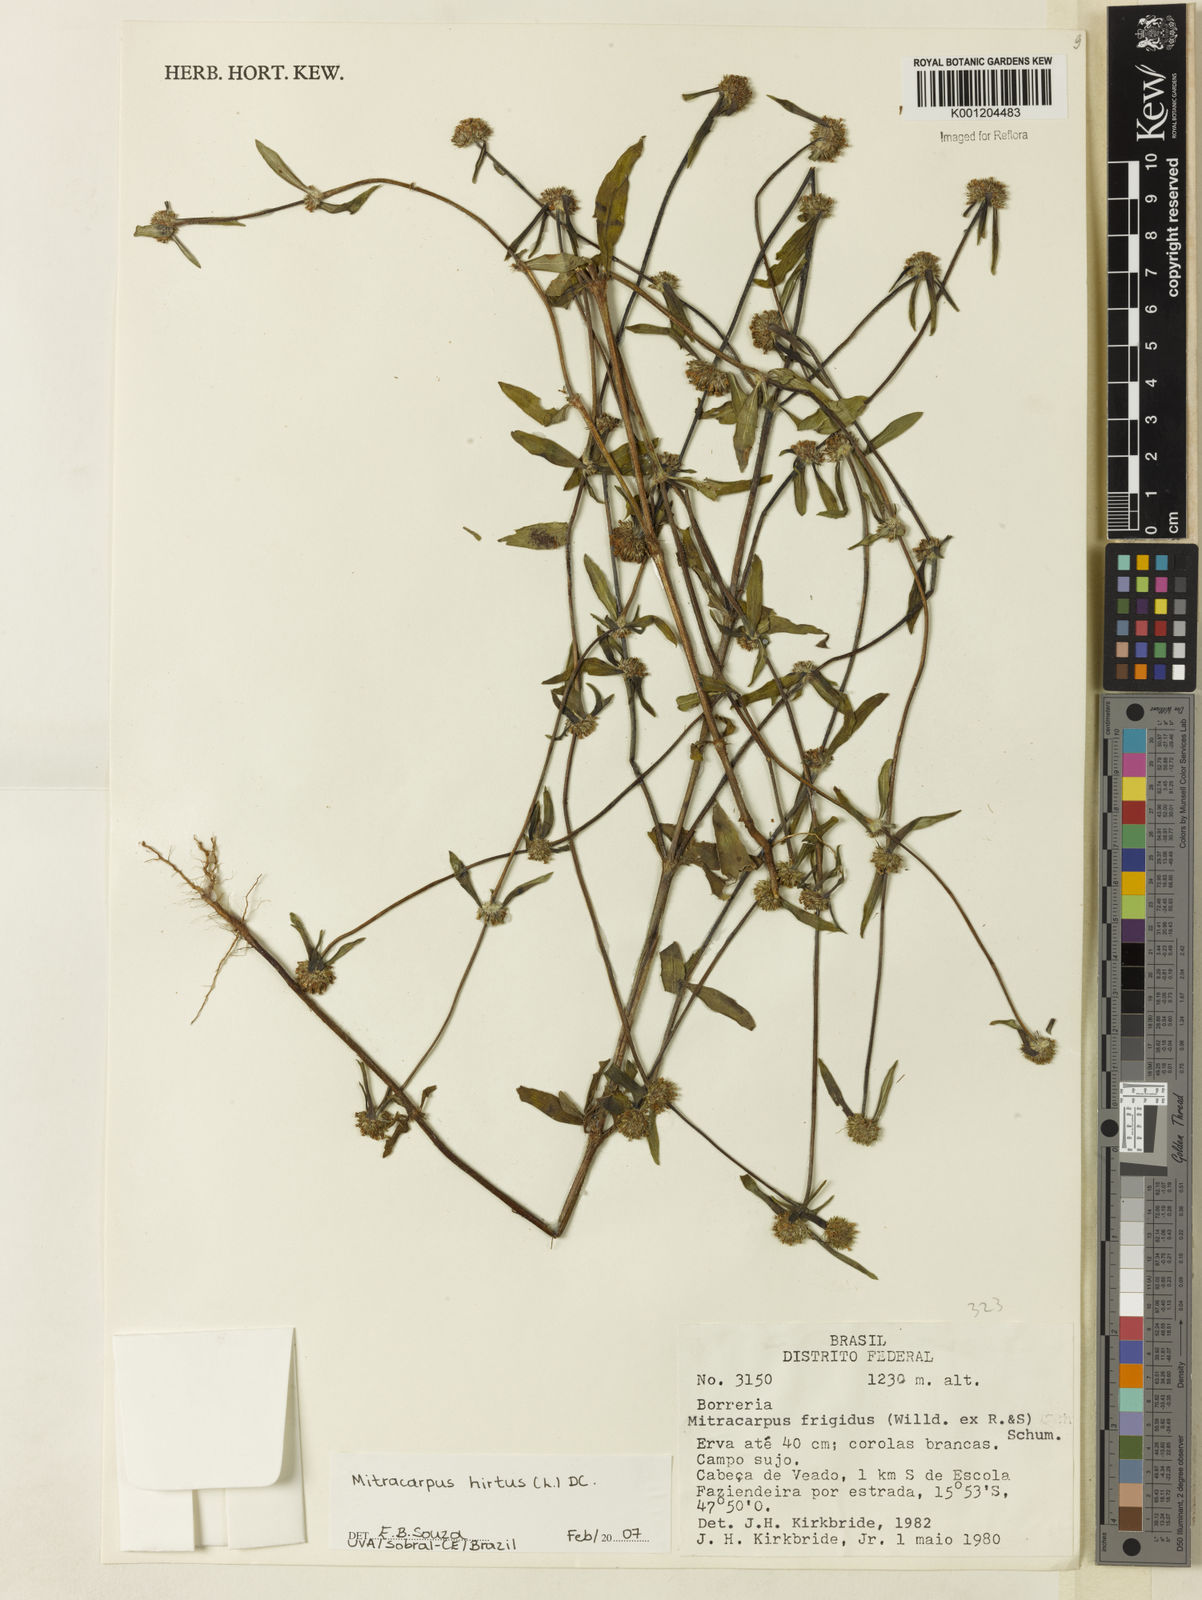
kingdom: Plantae
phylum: Tracheophyta
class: Magnoliopsida
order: Gentianales
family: Rubiaceae
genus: Mitracarpus
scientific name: Mitracarpus hirtus
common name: Tropical girdlepod
